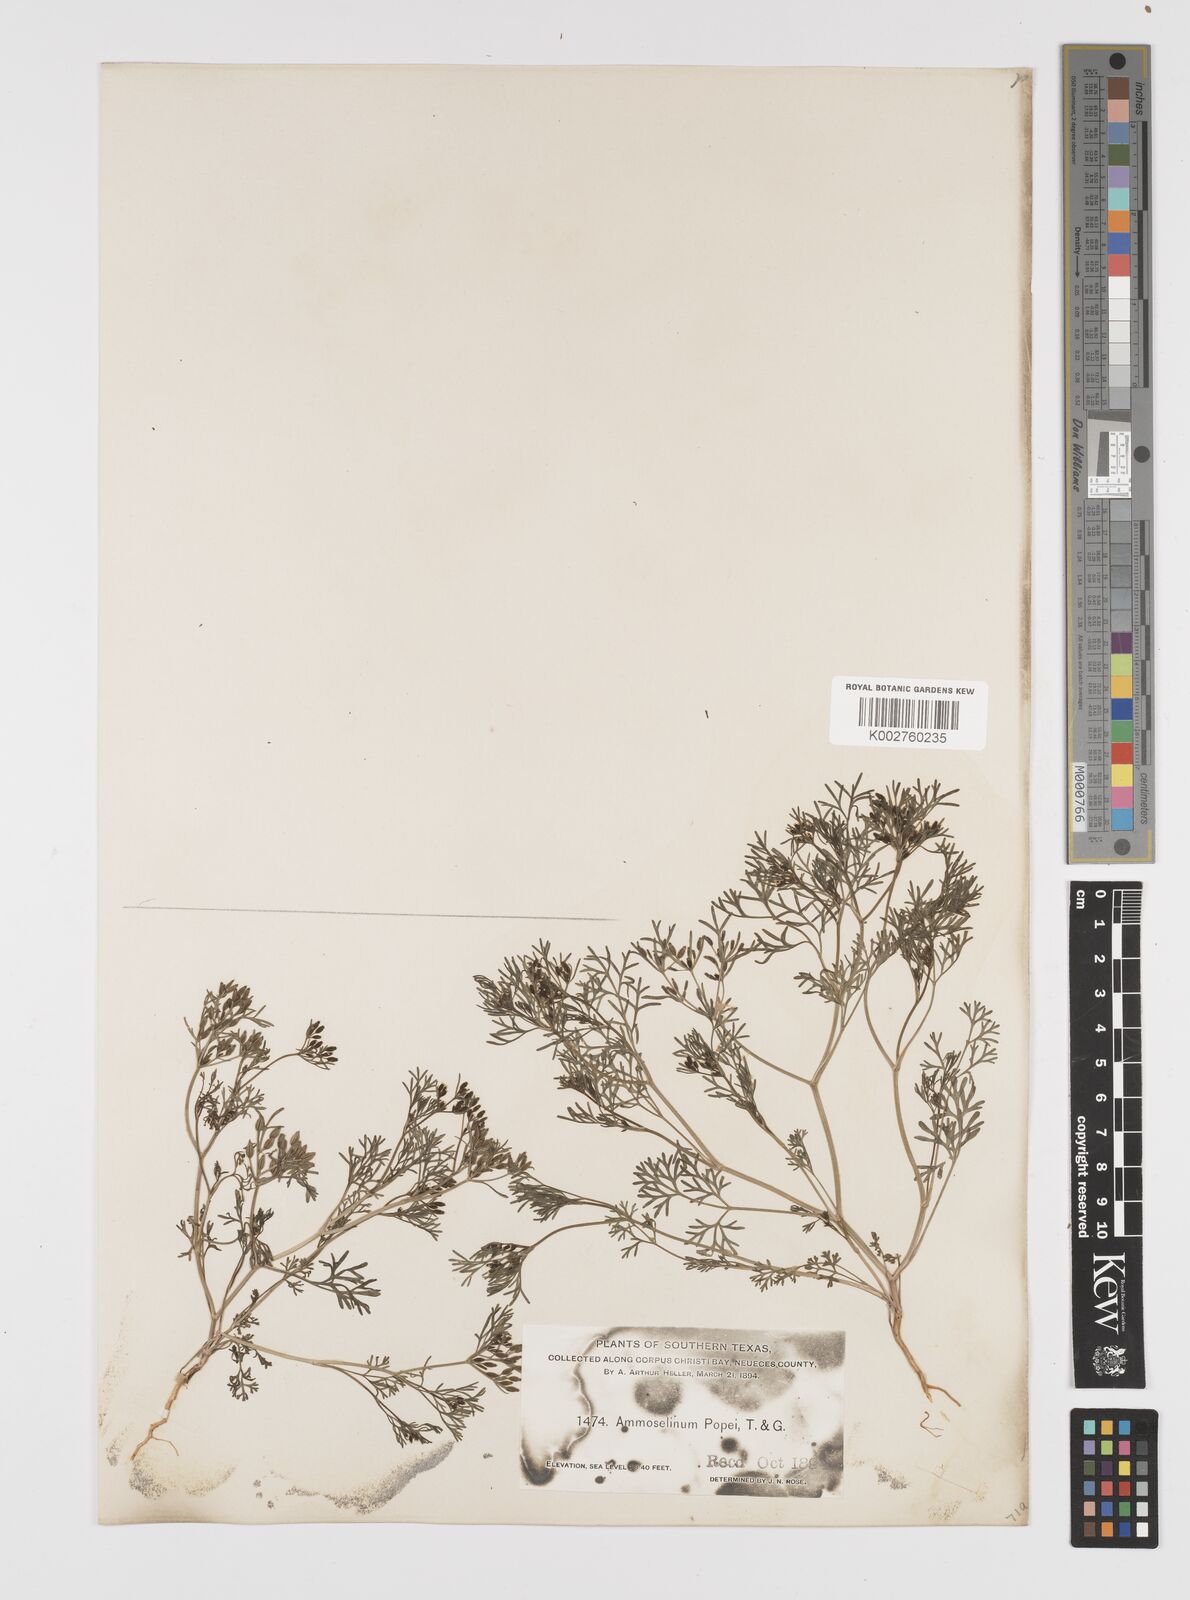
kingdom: Plantae
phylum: Tracheophyta
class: Magnoliopsida
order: Apiales
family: Apiaceae
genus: Ammoselinum
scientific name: Ammoselinum popei
